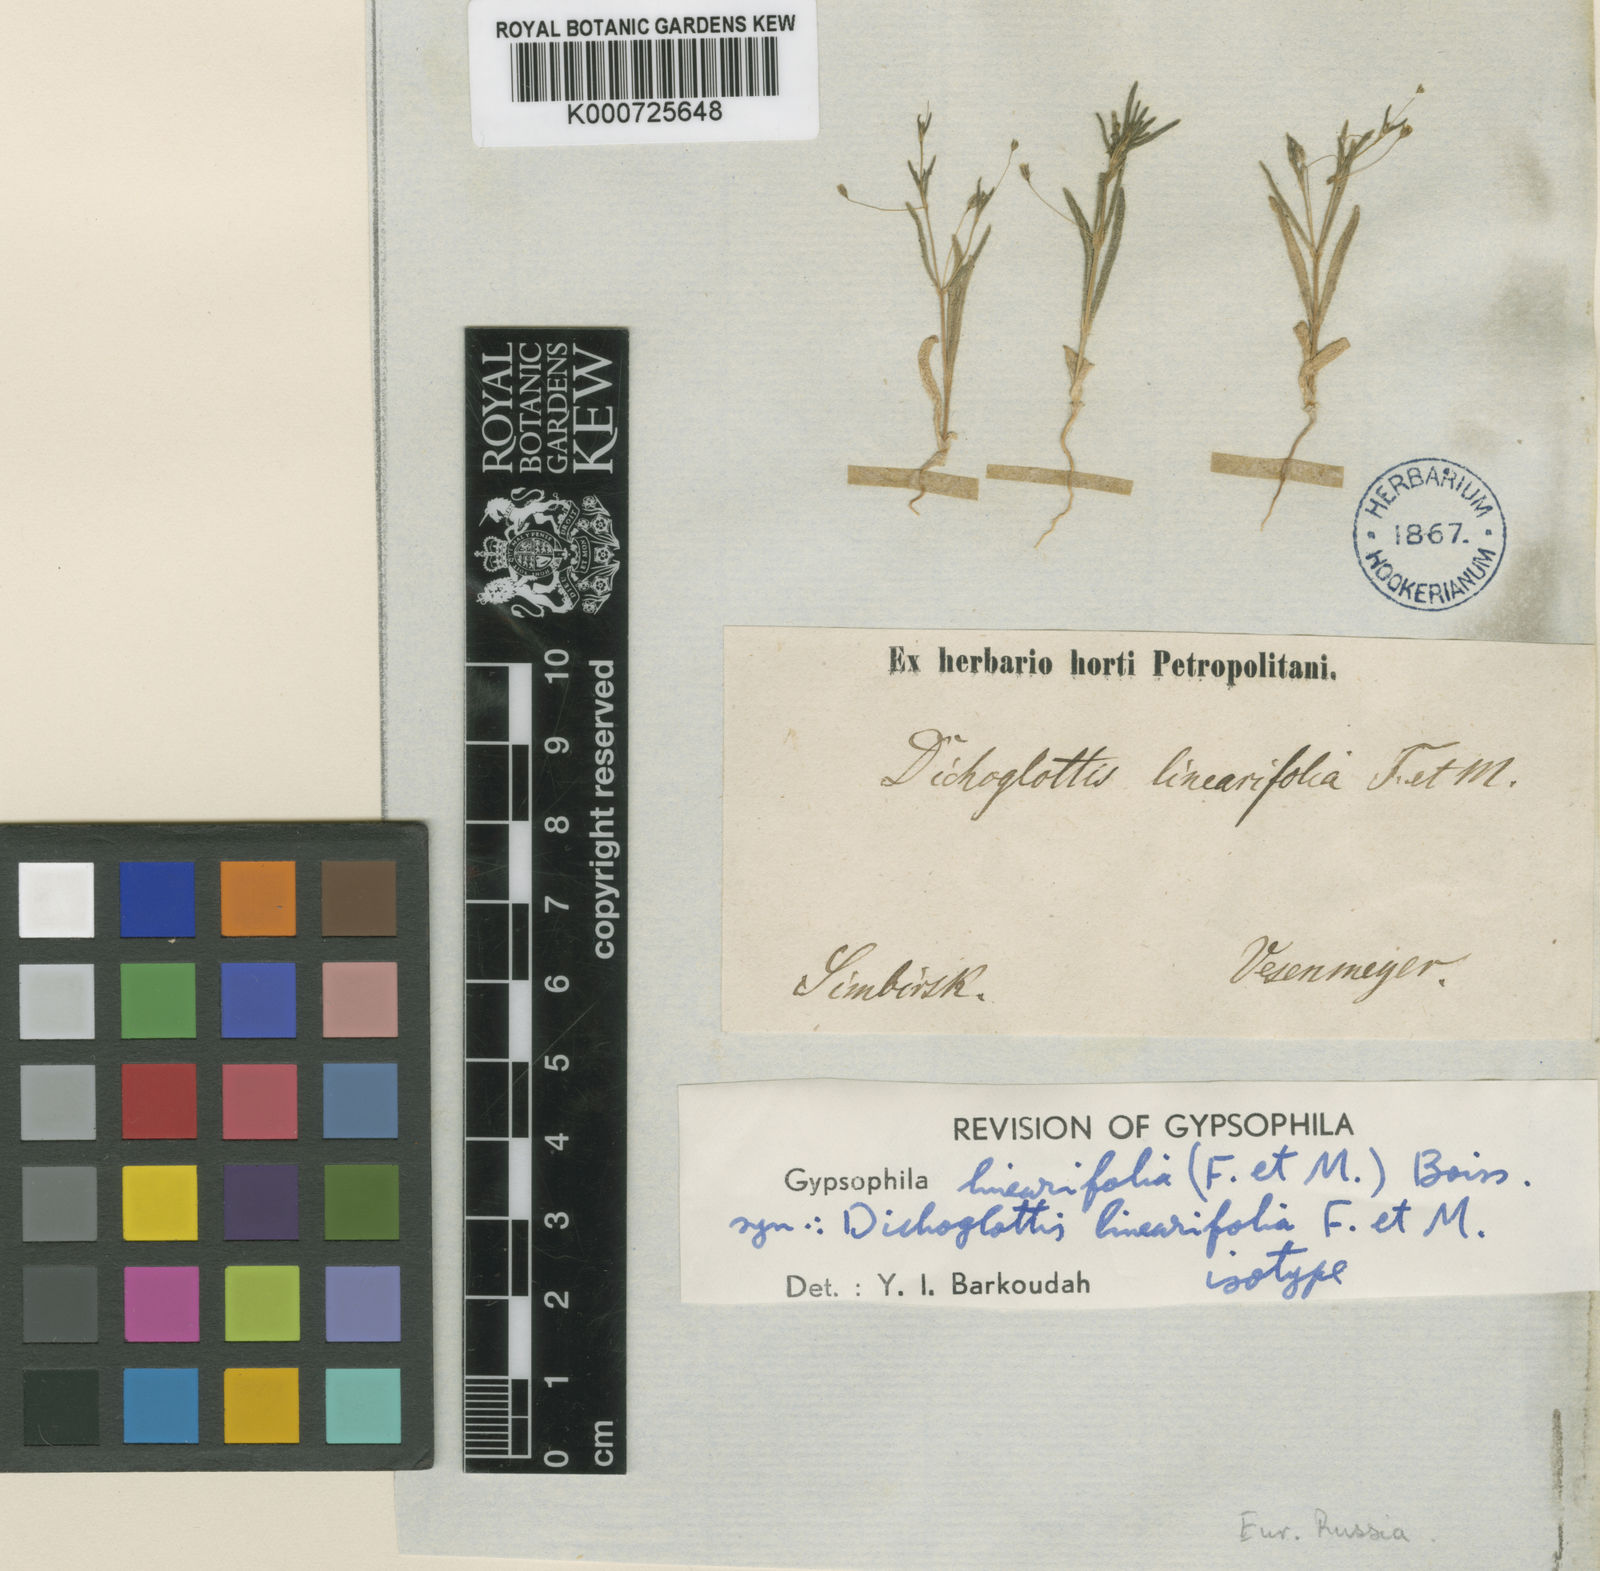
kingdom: Plantae
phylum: Tracheophyta
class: Magnoliopsida
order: Caryophyllales
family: Caryophyllaceae
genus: Gypsophila
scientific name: Gypsophila linearifolia
